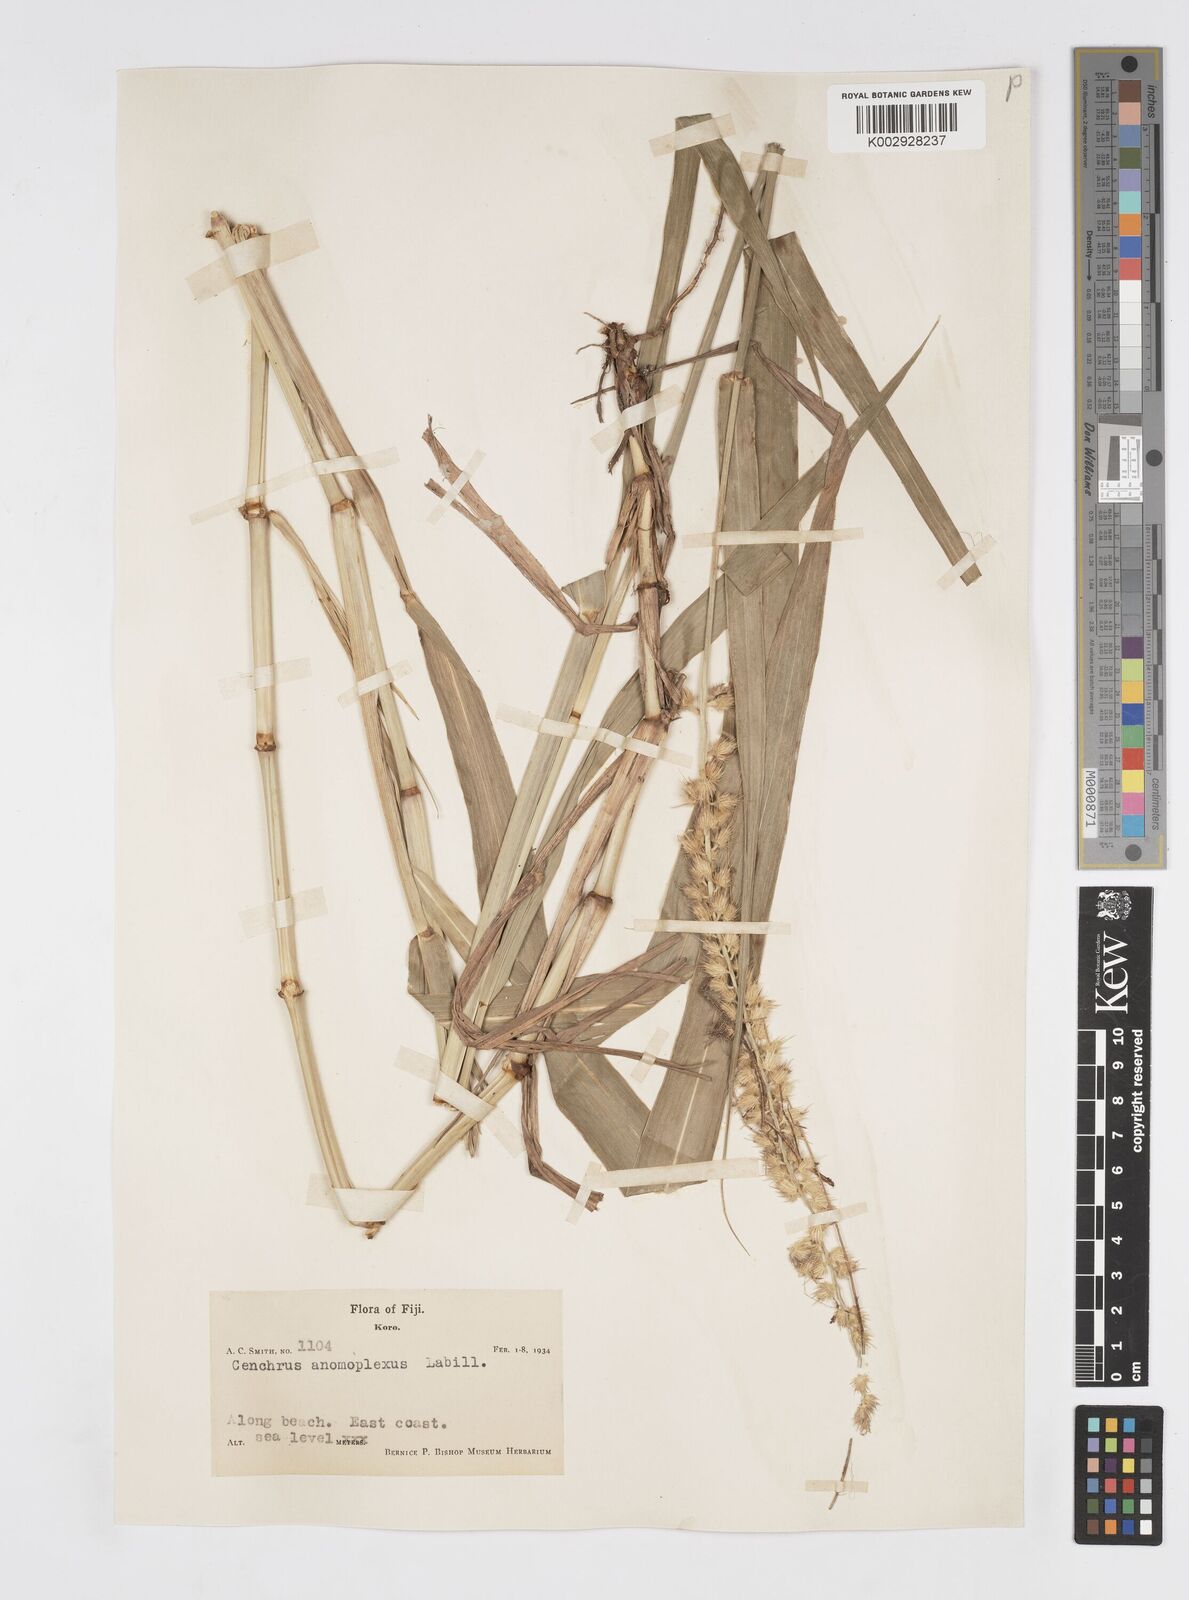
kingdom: Plantae
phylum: Tracheophyta
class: Liliopsida
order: Poales
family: Poaceae
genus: Cenchrus
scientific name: Cenchrus caliculatus
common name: Large bur grass
